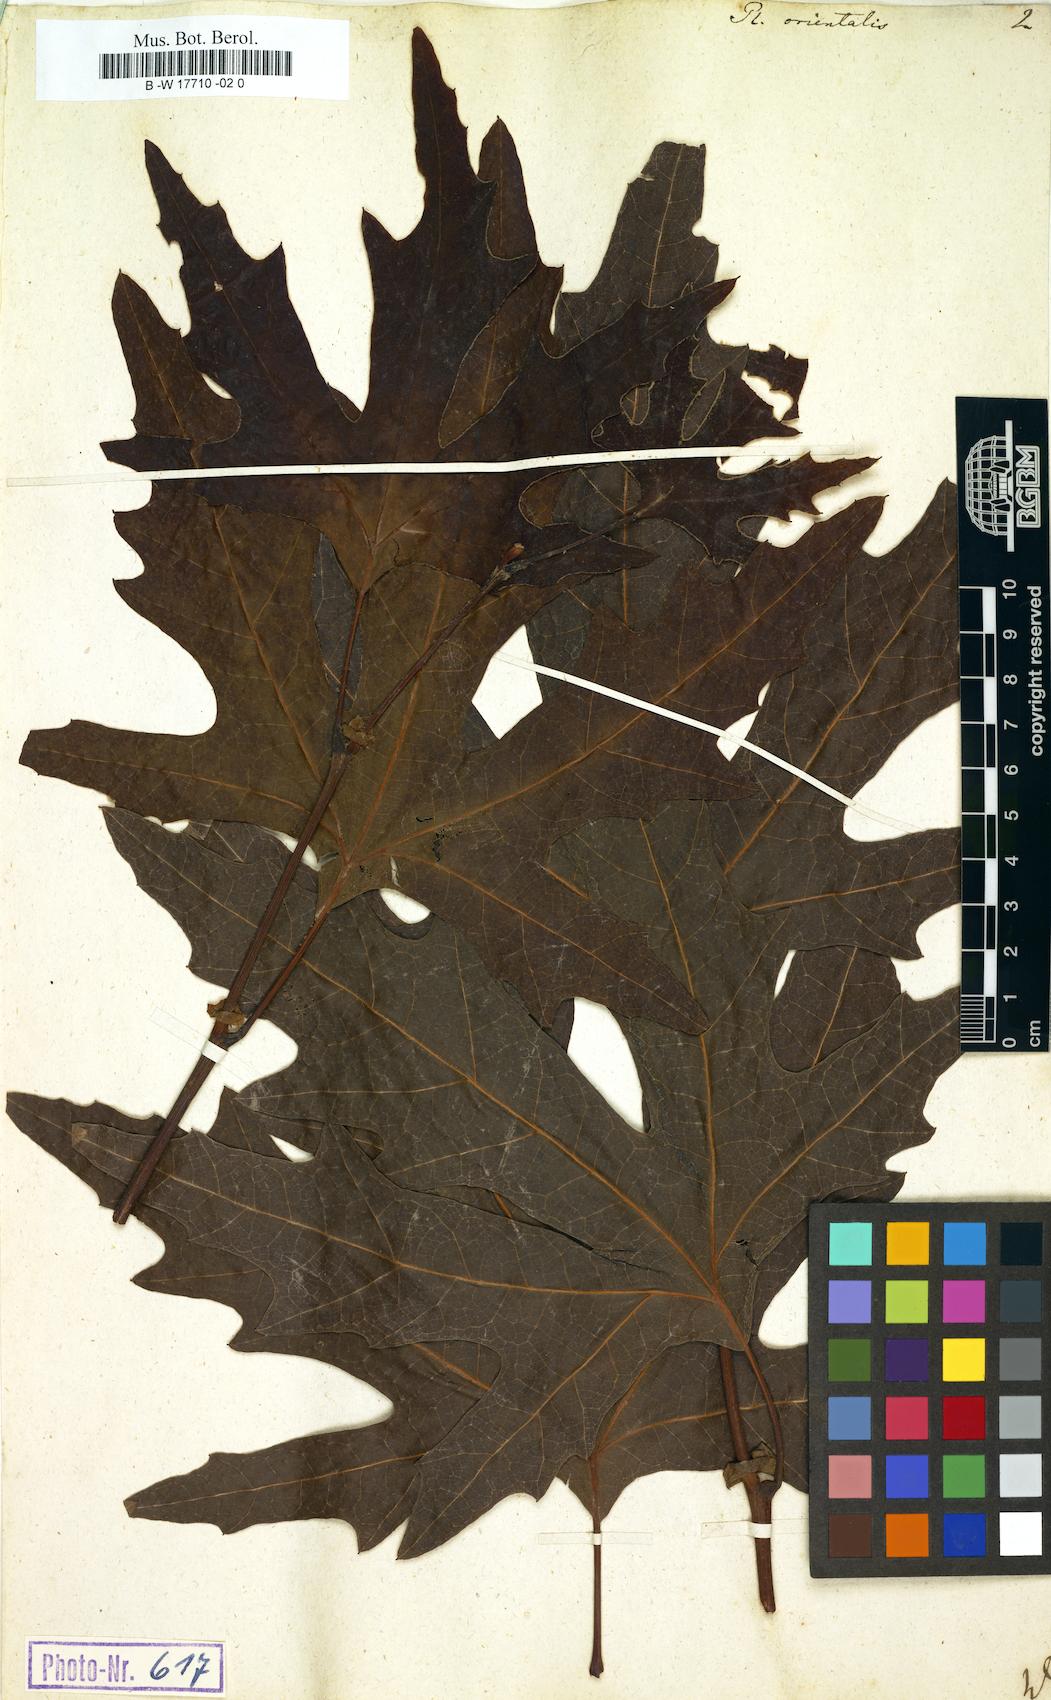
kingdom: Plantae
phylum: Tracheophyta
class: Magnoliopsida
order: Proteales
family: Platanaceae
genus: Platanus
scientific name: Platanus orientalis
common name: Oriental plane
